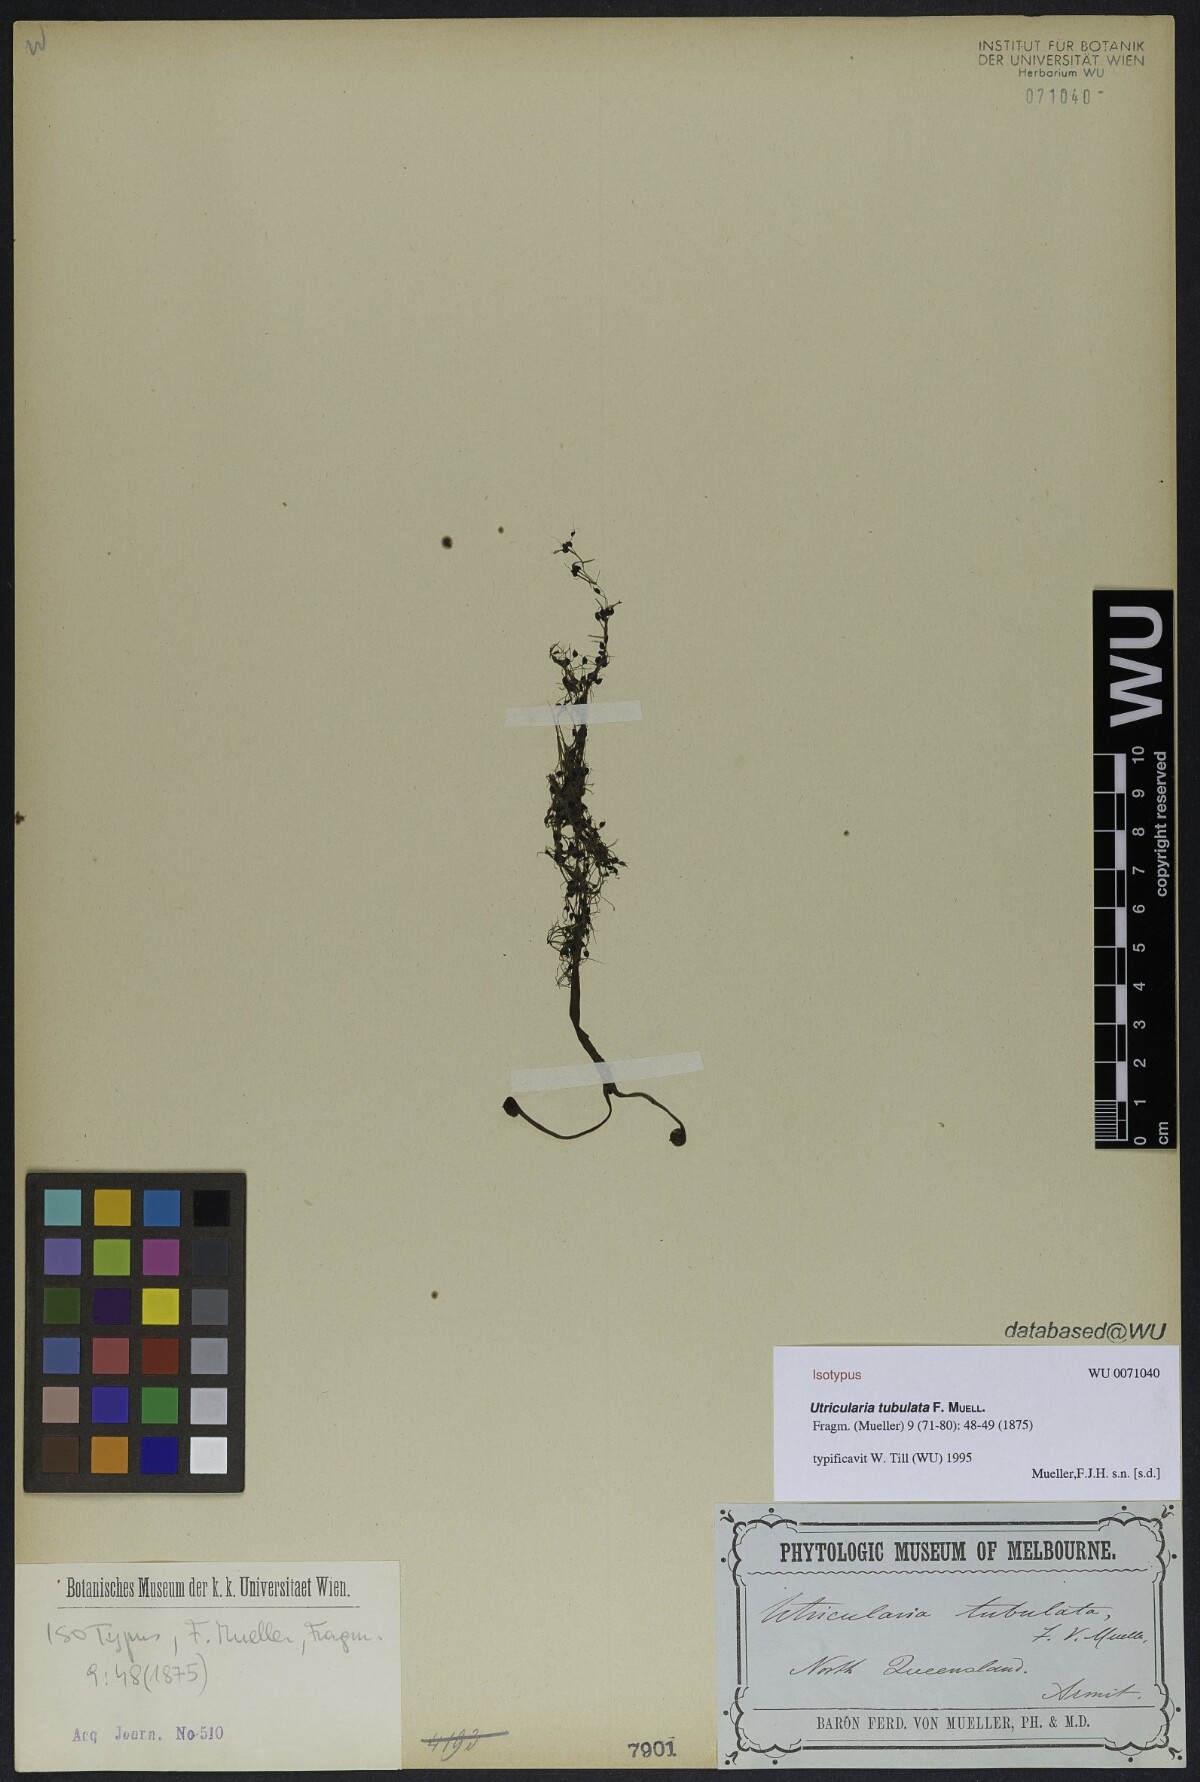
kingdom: Plantae
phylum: Tracheophyta
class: Magnoliopsida
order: Lamiales
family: Lentibulariaceae
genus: Utricularia
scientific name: Utricularia tubulata
